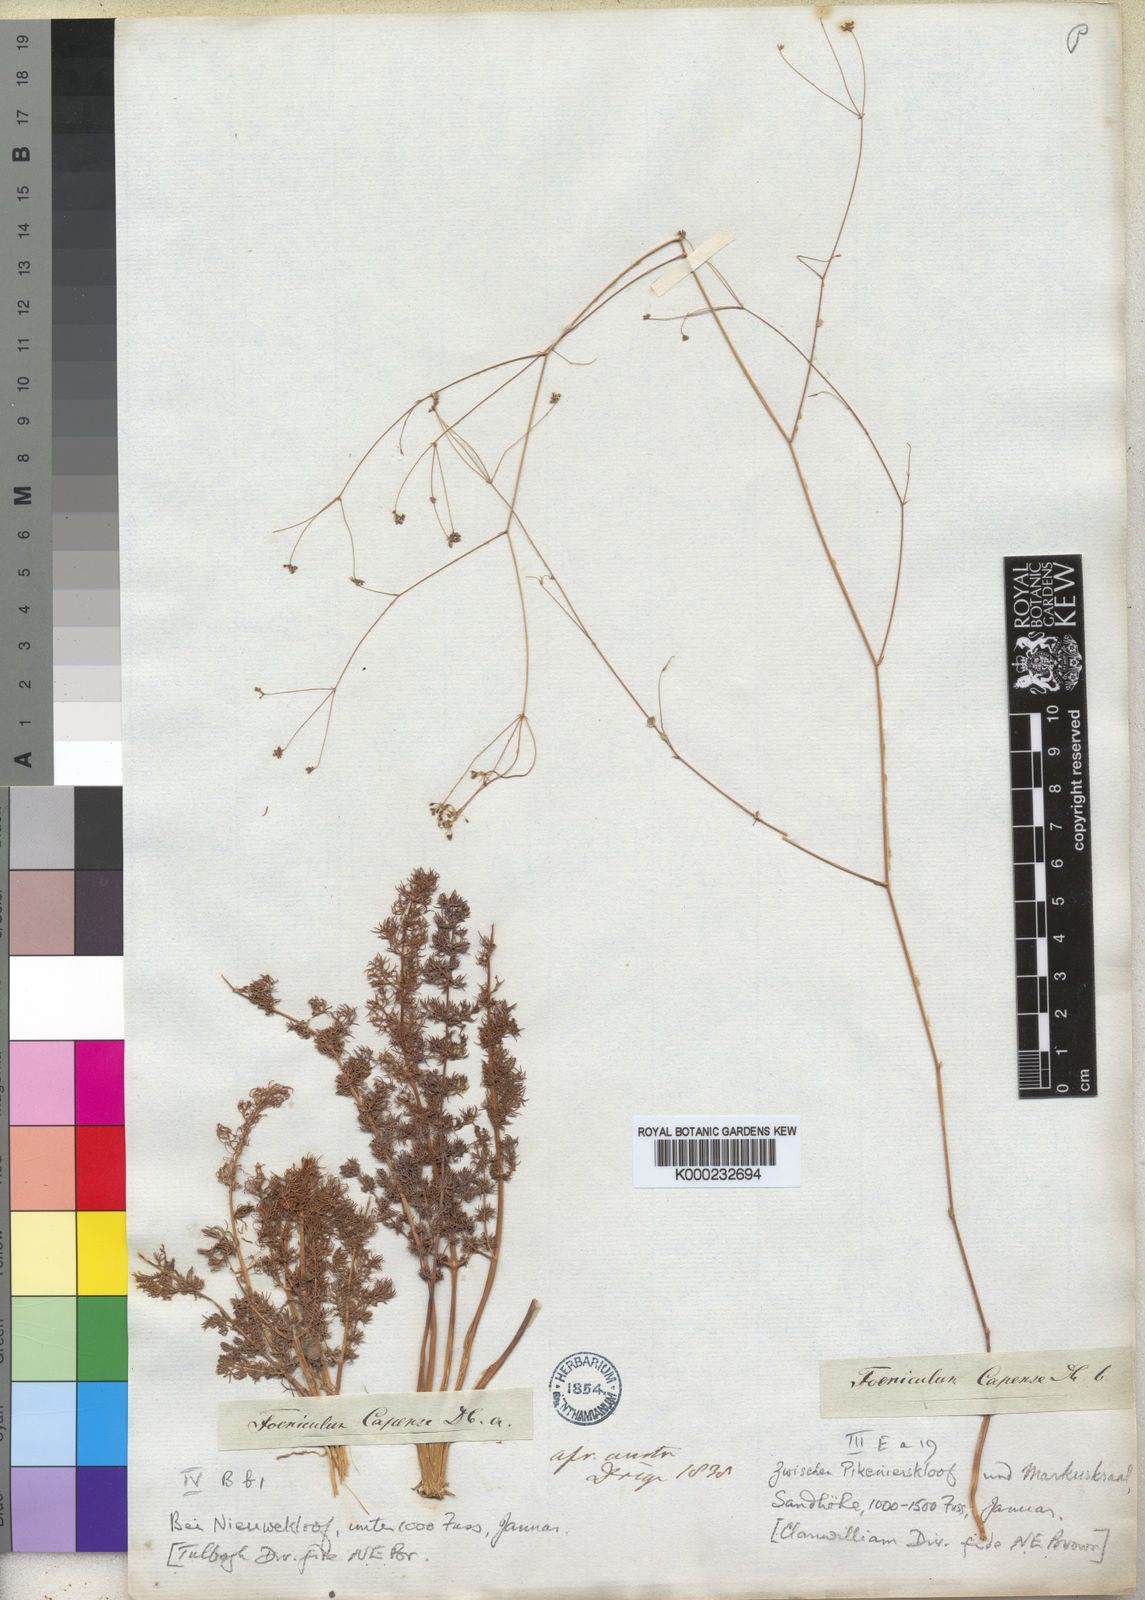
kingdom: Plantae
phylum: Tracheophyta
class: Magnoliopsida
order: Apiales
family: Apiaceae
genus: Chamarea
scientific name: Chamarea capensis
